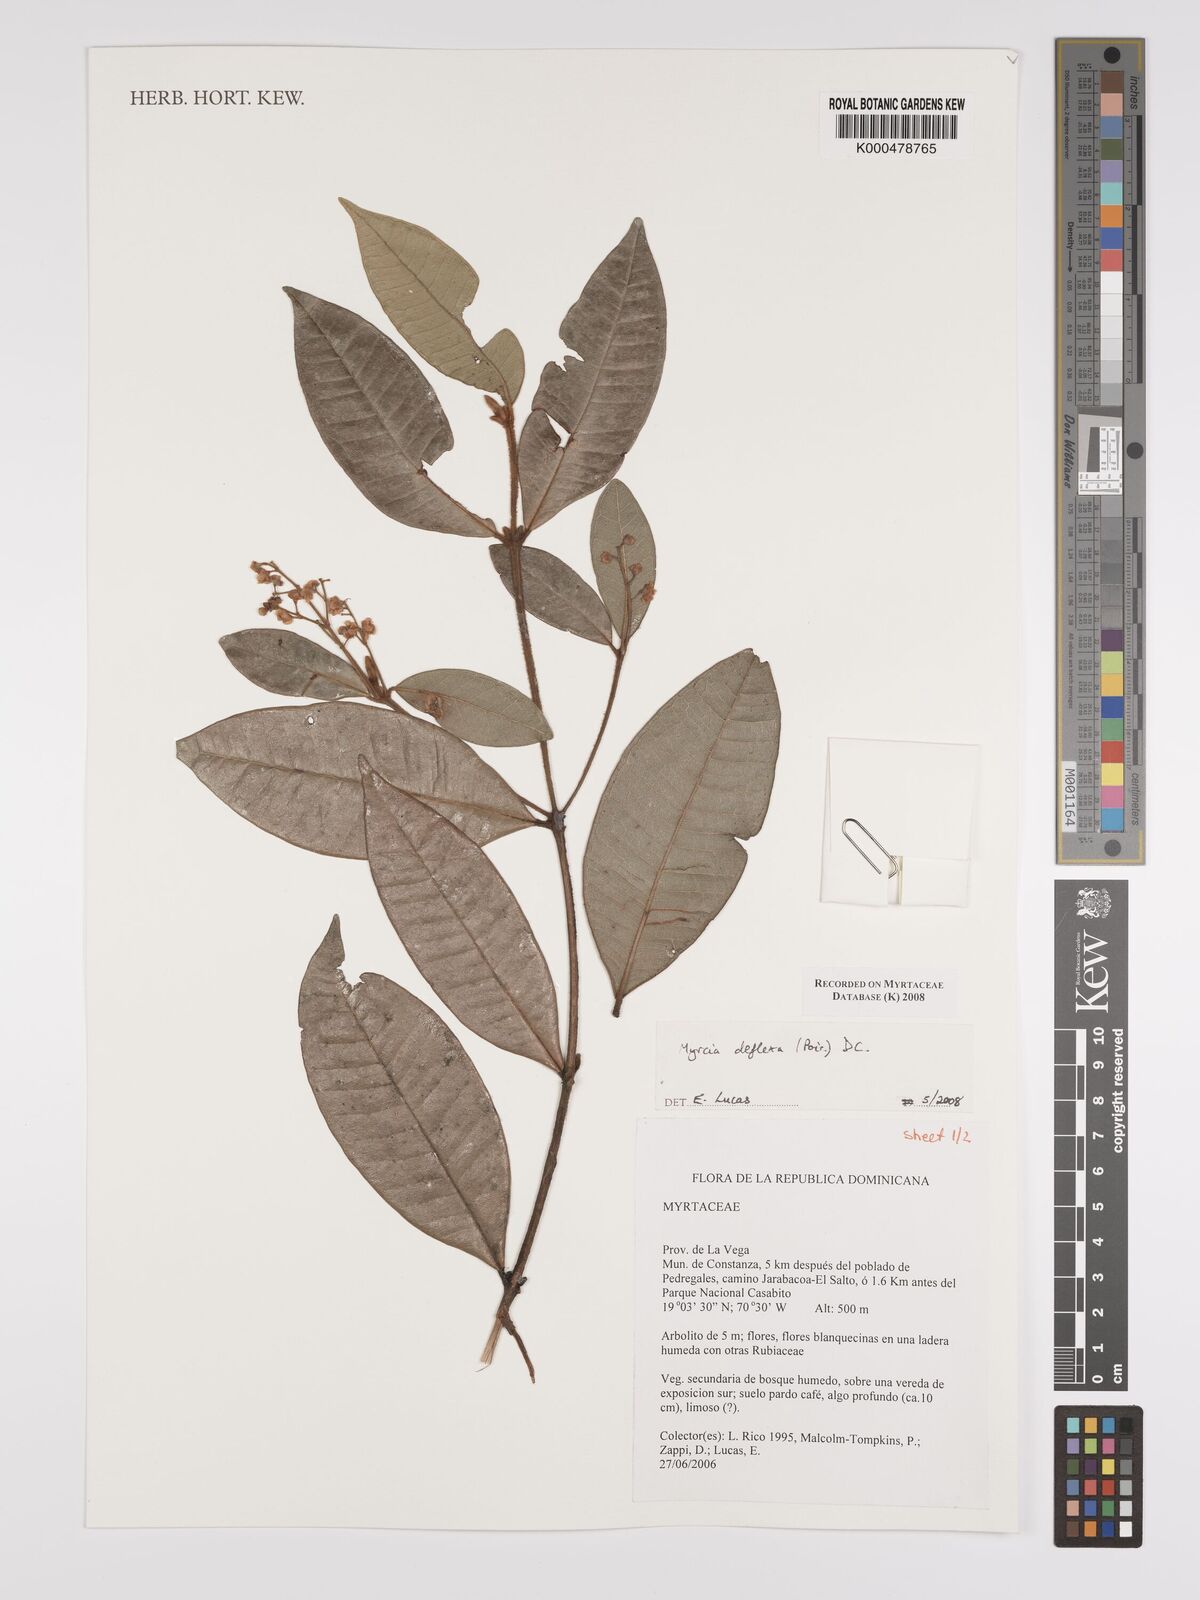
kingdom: Plantae
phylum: Tracheophyta
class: Magnoliopsida
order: Myrtales
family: Myrtaceae
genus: Myrcia
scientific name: Myrcia deflexa
